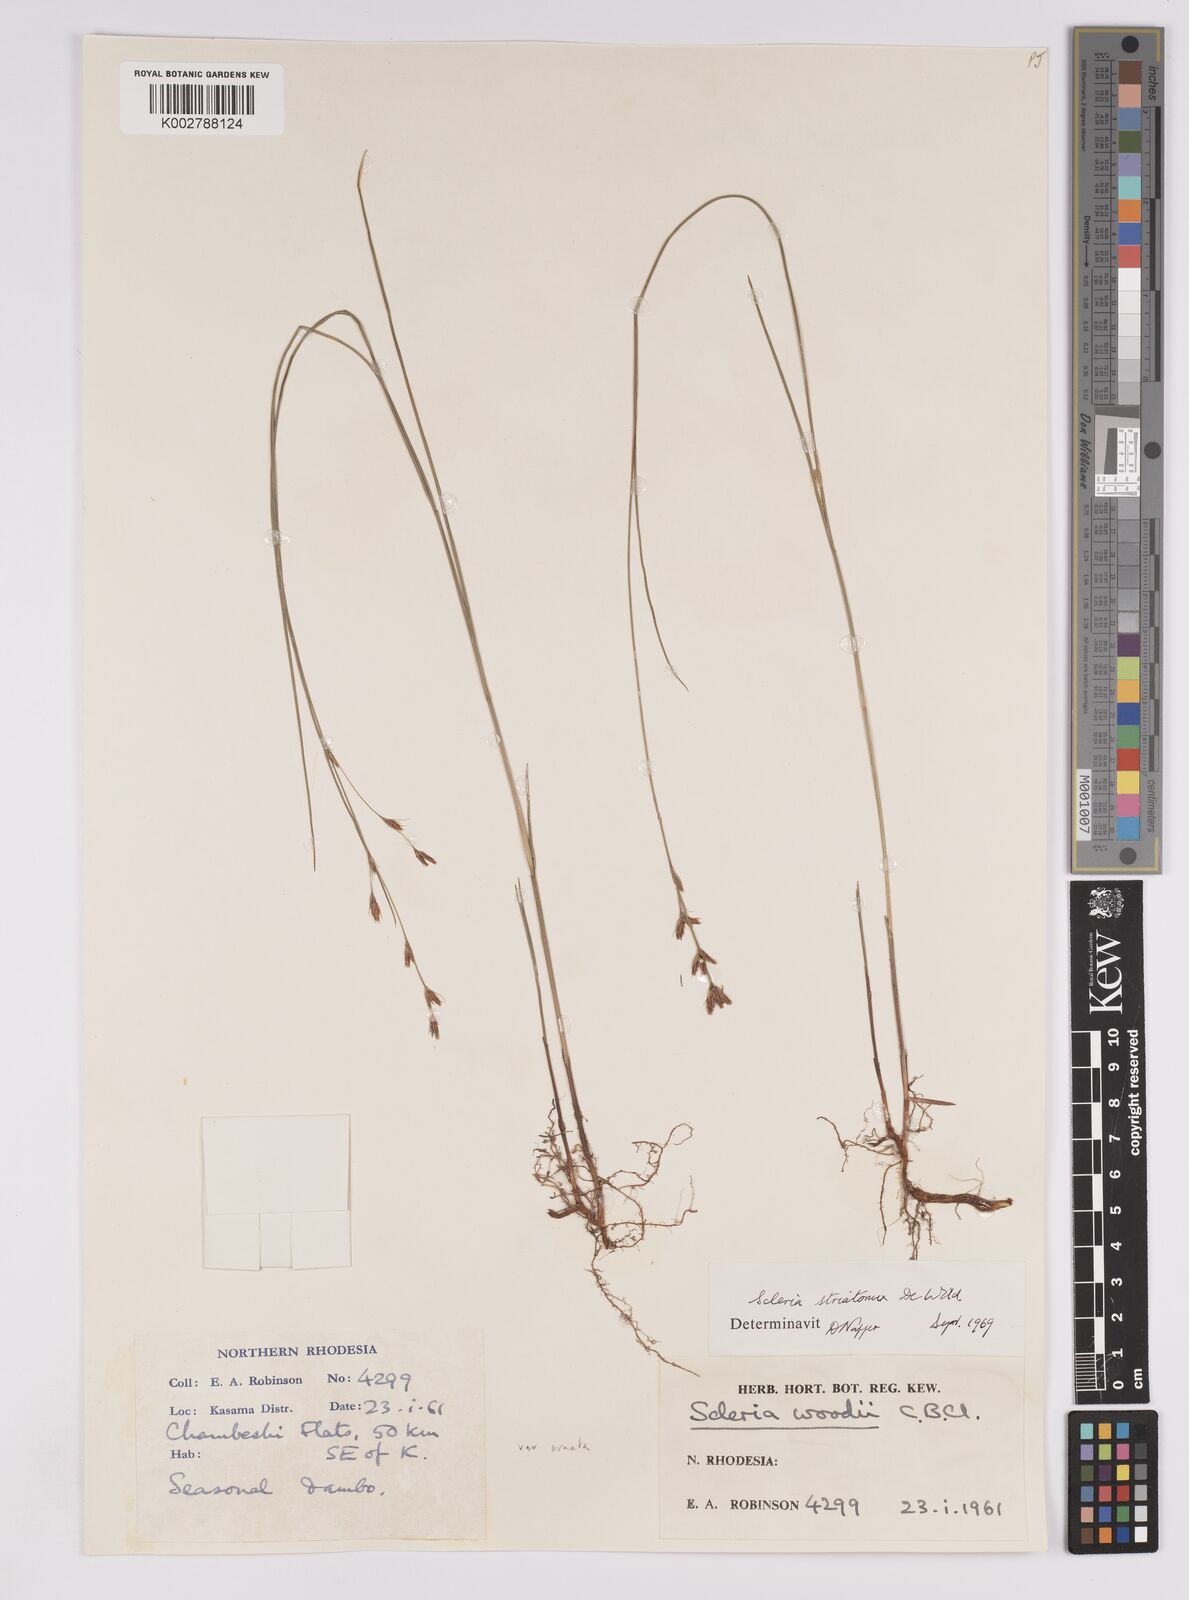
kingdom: Plantae
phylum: Tracheophyta
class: Liliopsida
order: Poales
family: Cyperaceae
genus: Scleria
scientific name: Scleria woodii
